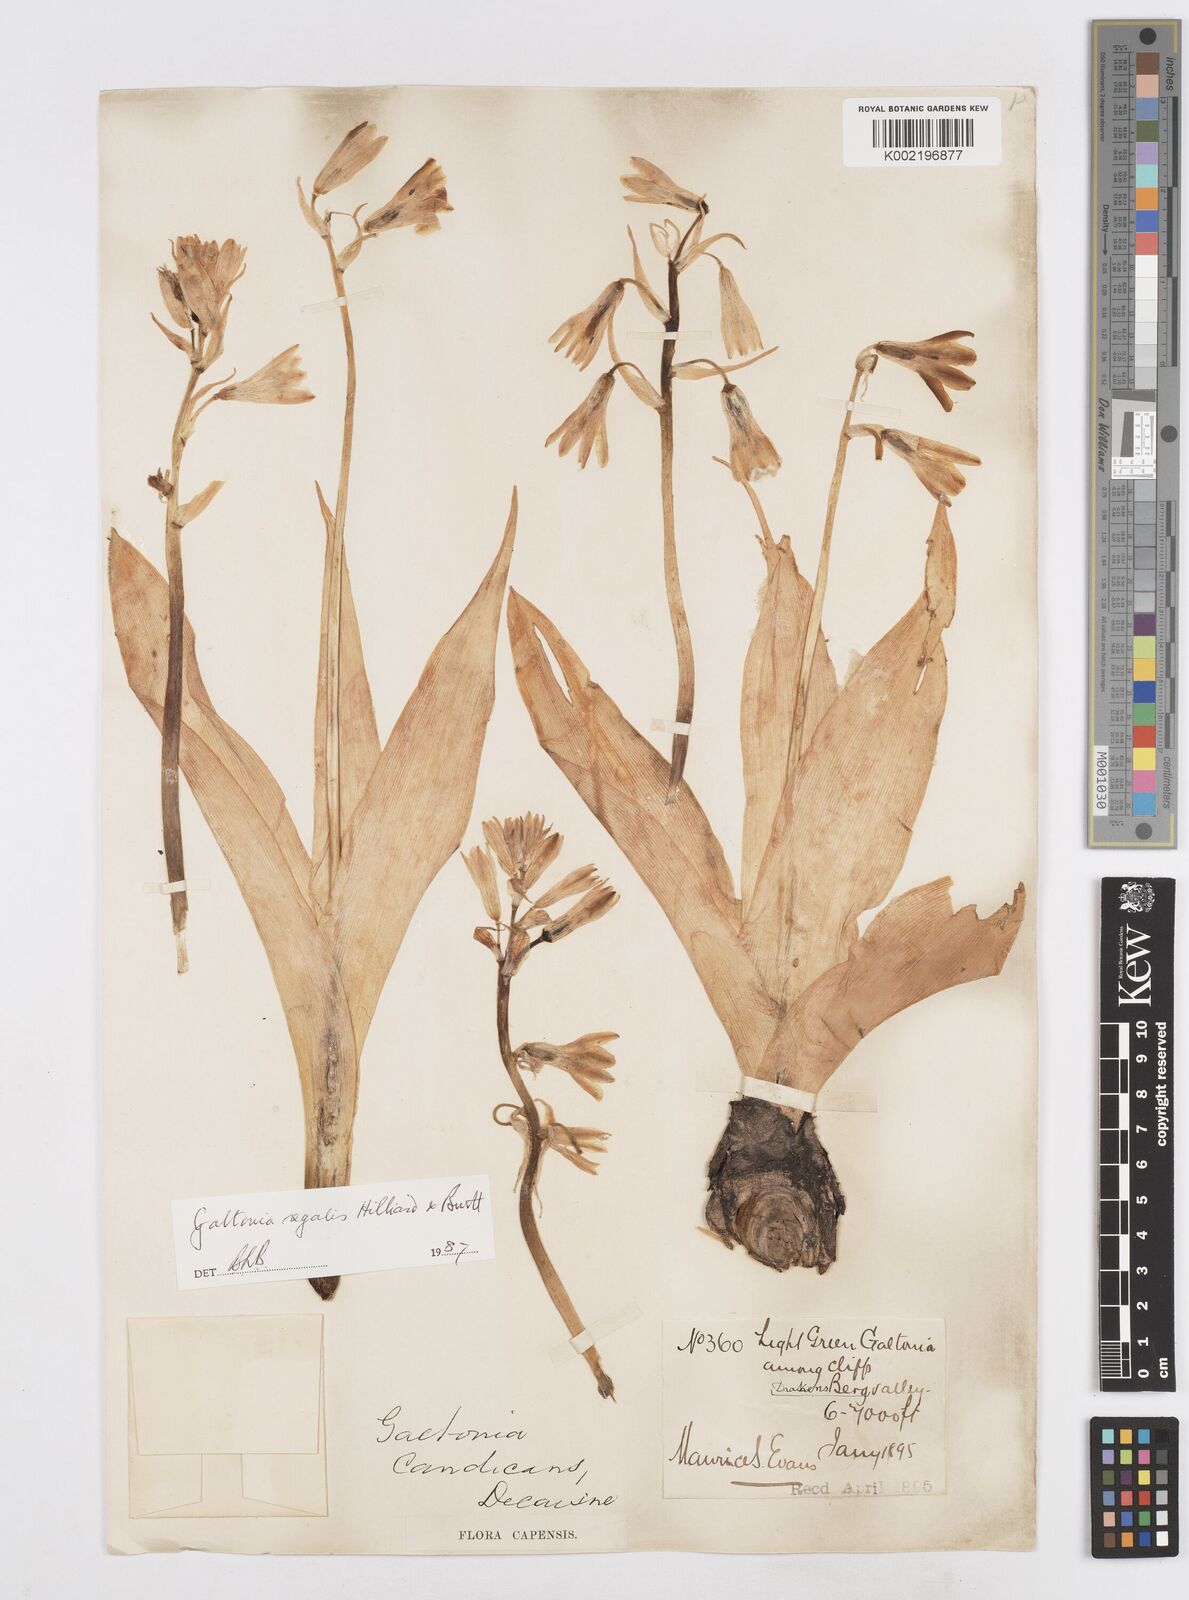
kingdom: Plantae
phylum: Tracheophyta
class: Liliopsida
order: Asparagales
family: Asparagaceae
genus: Ornithogalum
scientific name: Ornithogalum regale
